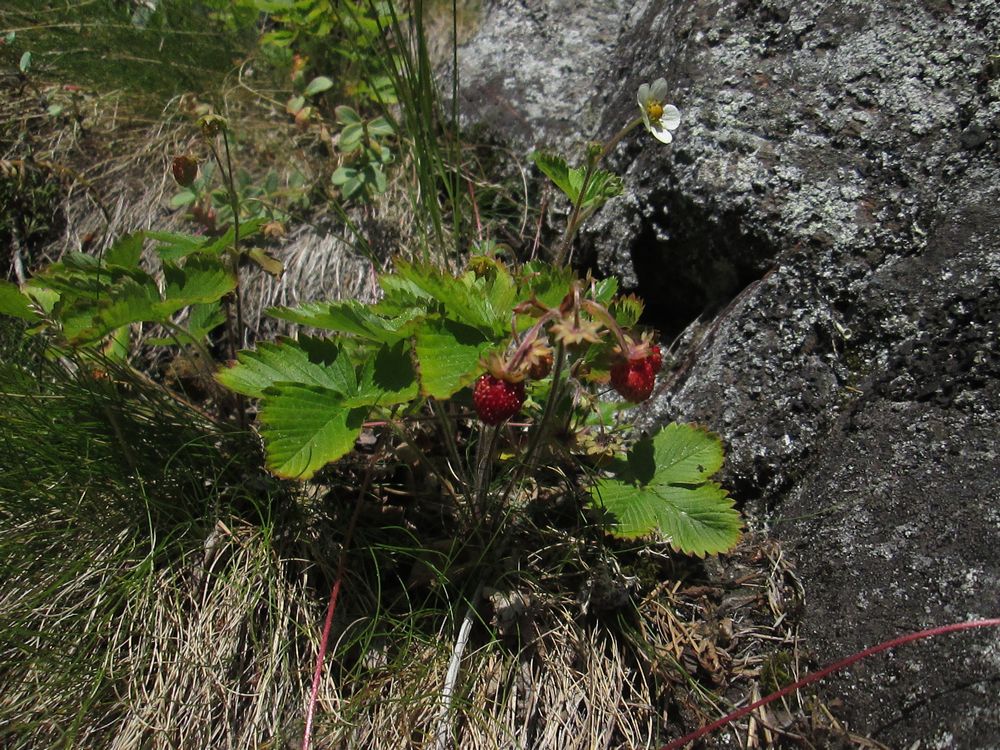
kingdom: Plantae
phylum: Tracheophyta
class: Magnoliopsida
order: Rosales
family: Rosaceae
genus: Fragaria
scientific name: Fragaria vesca
